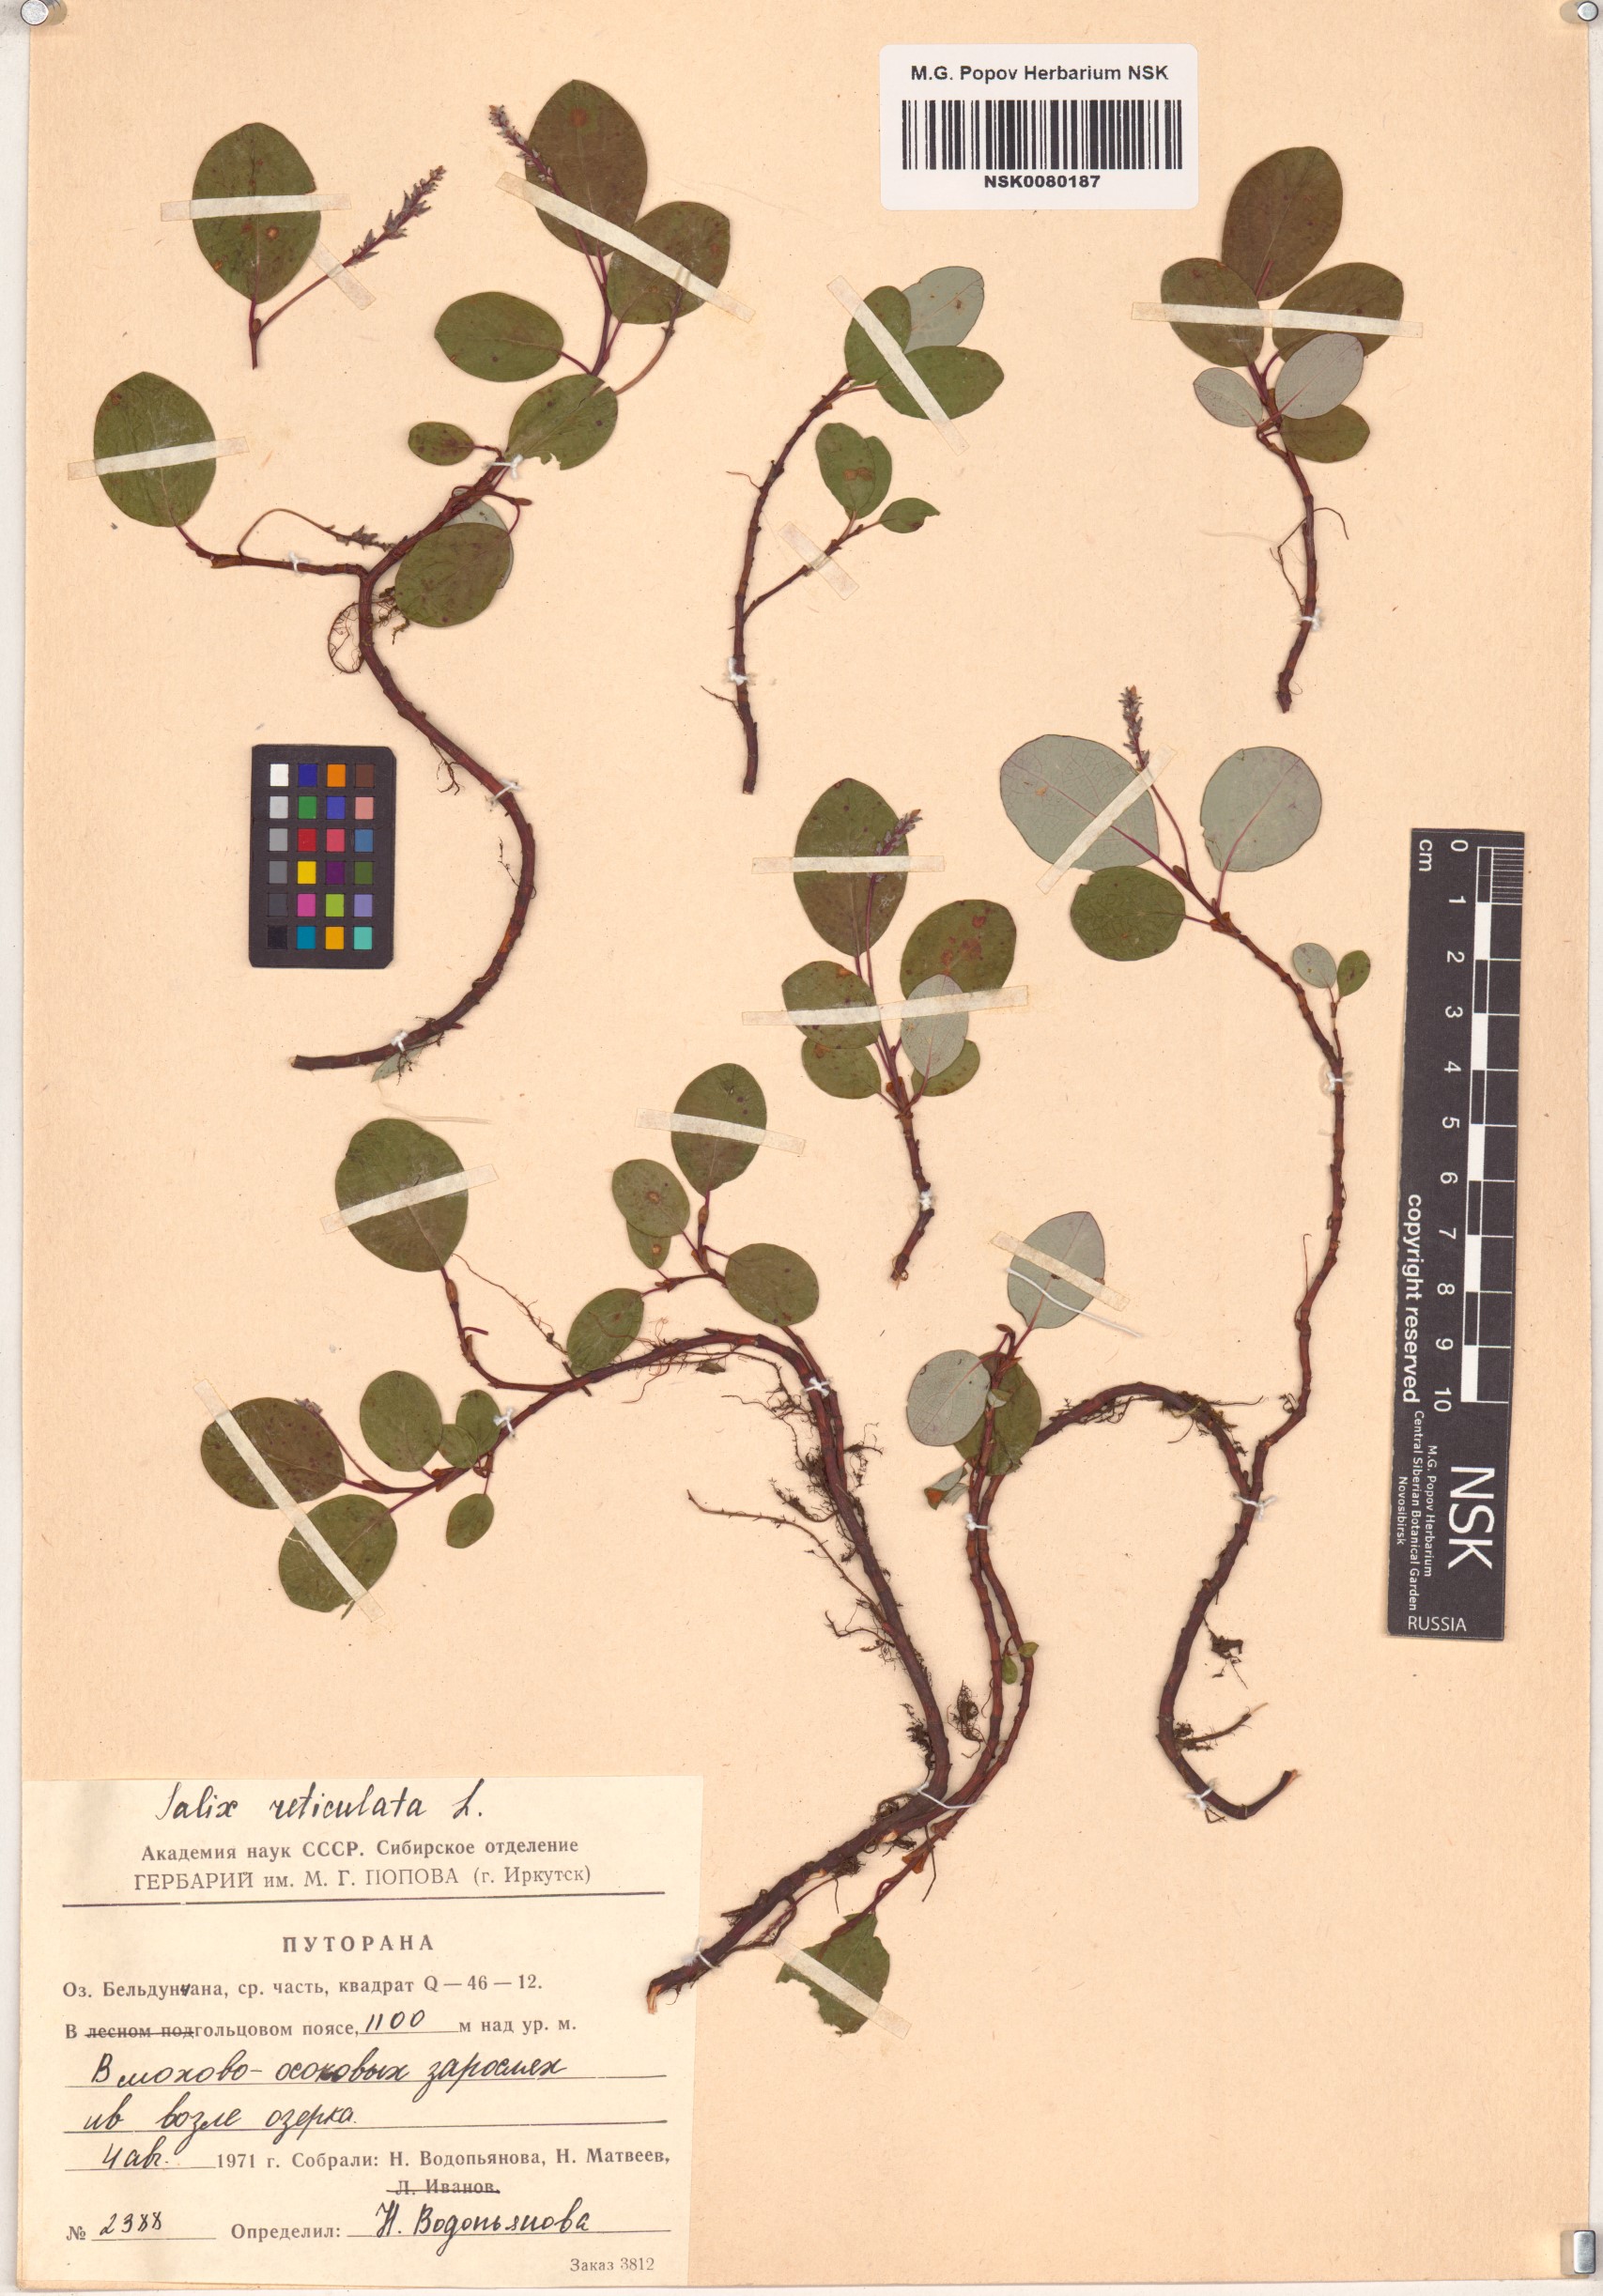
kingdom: Plantae
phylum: Tracheophyta
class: Magnoliopsida
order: Malpighiales
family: Salicaceae
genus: Salix
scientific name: Salix reticulata
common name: Net-leaved willow
